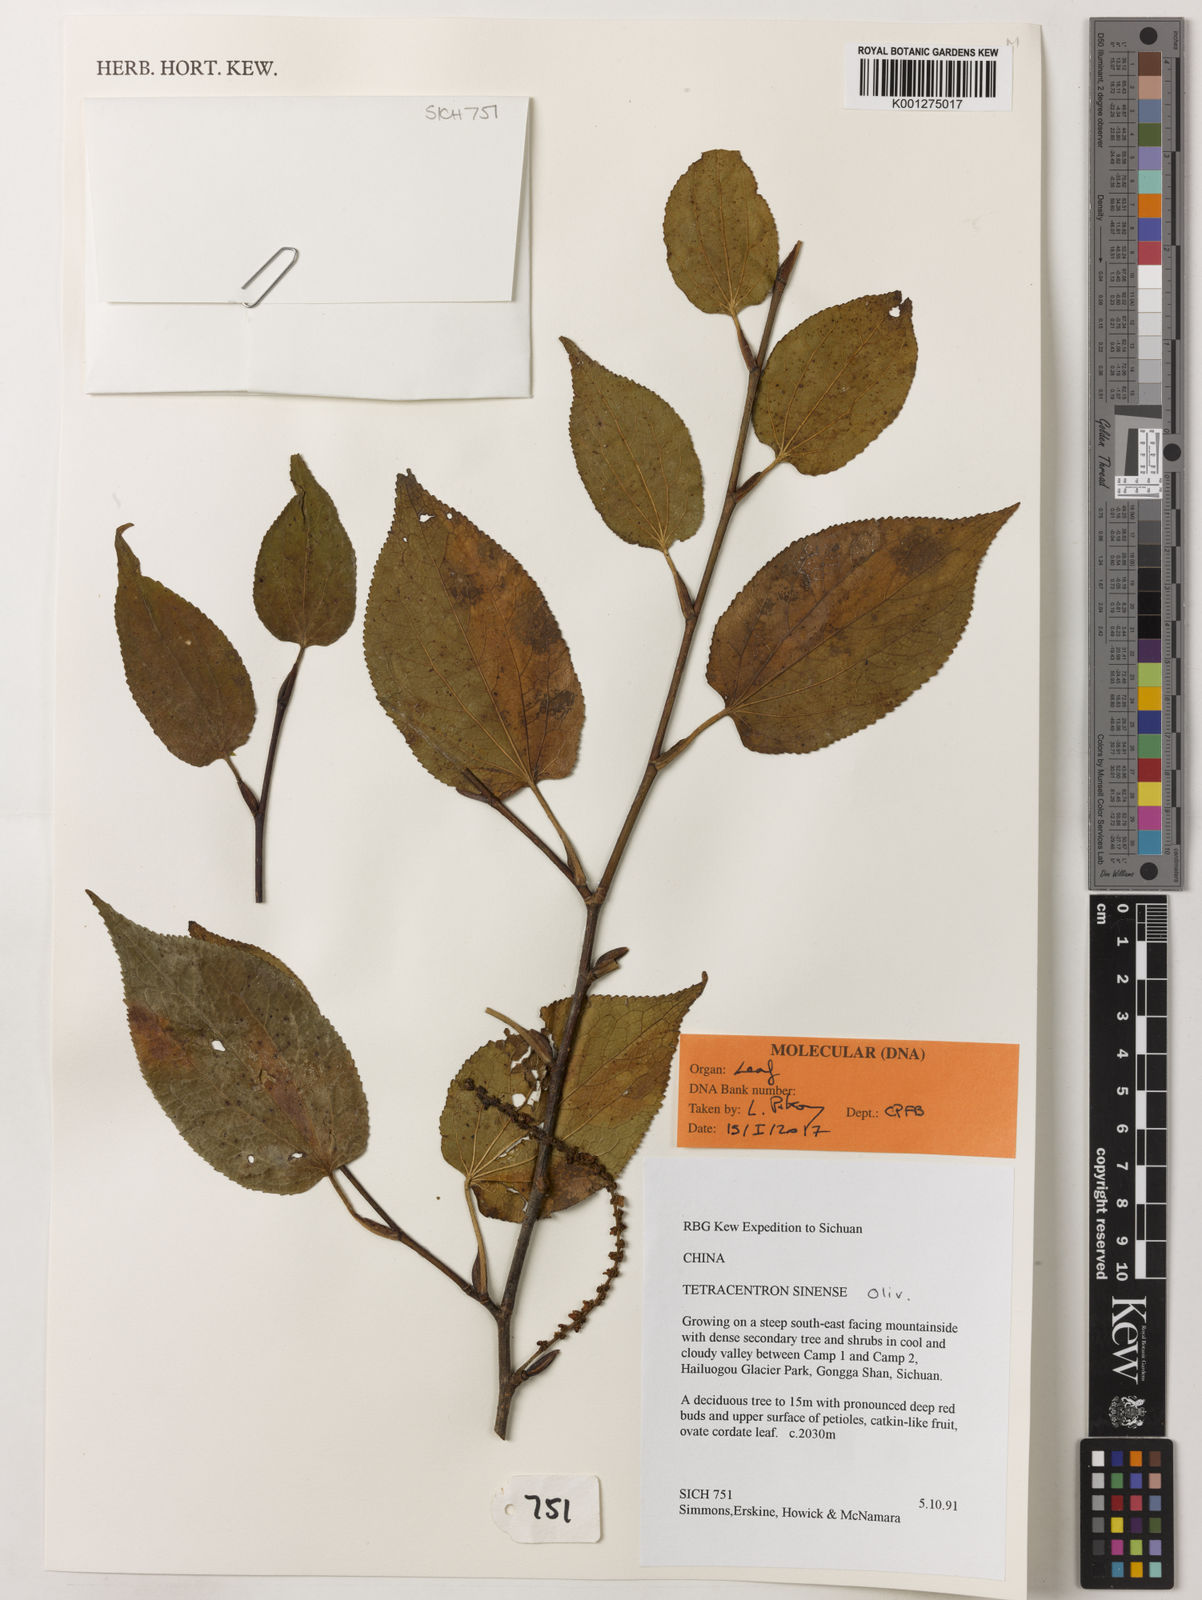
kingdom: Plantae
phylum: Tracheophyta
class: Magnoliopsida
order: Trochodendrales
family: Trochodendraceae
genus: Tetracentron
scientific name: Tetracentron sinense
